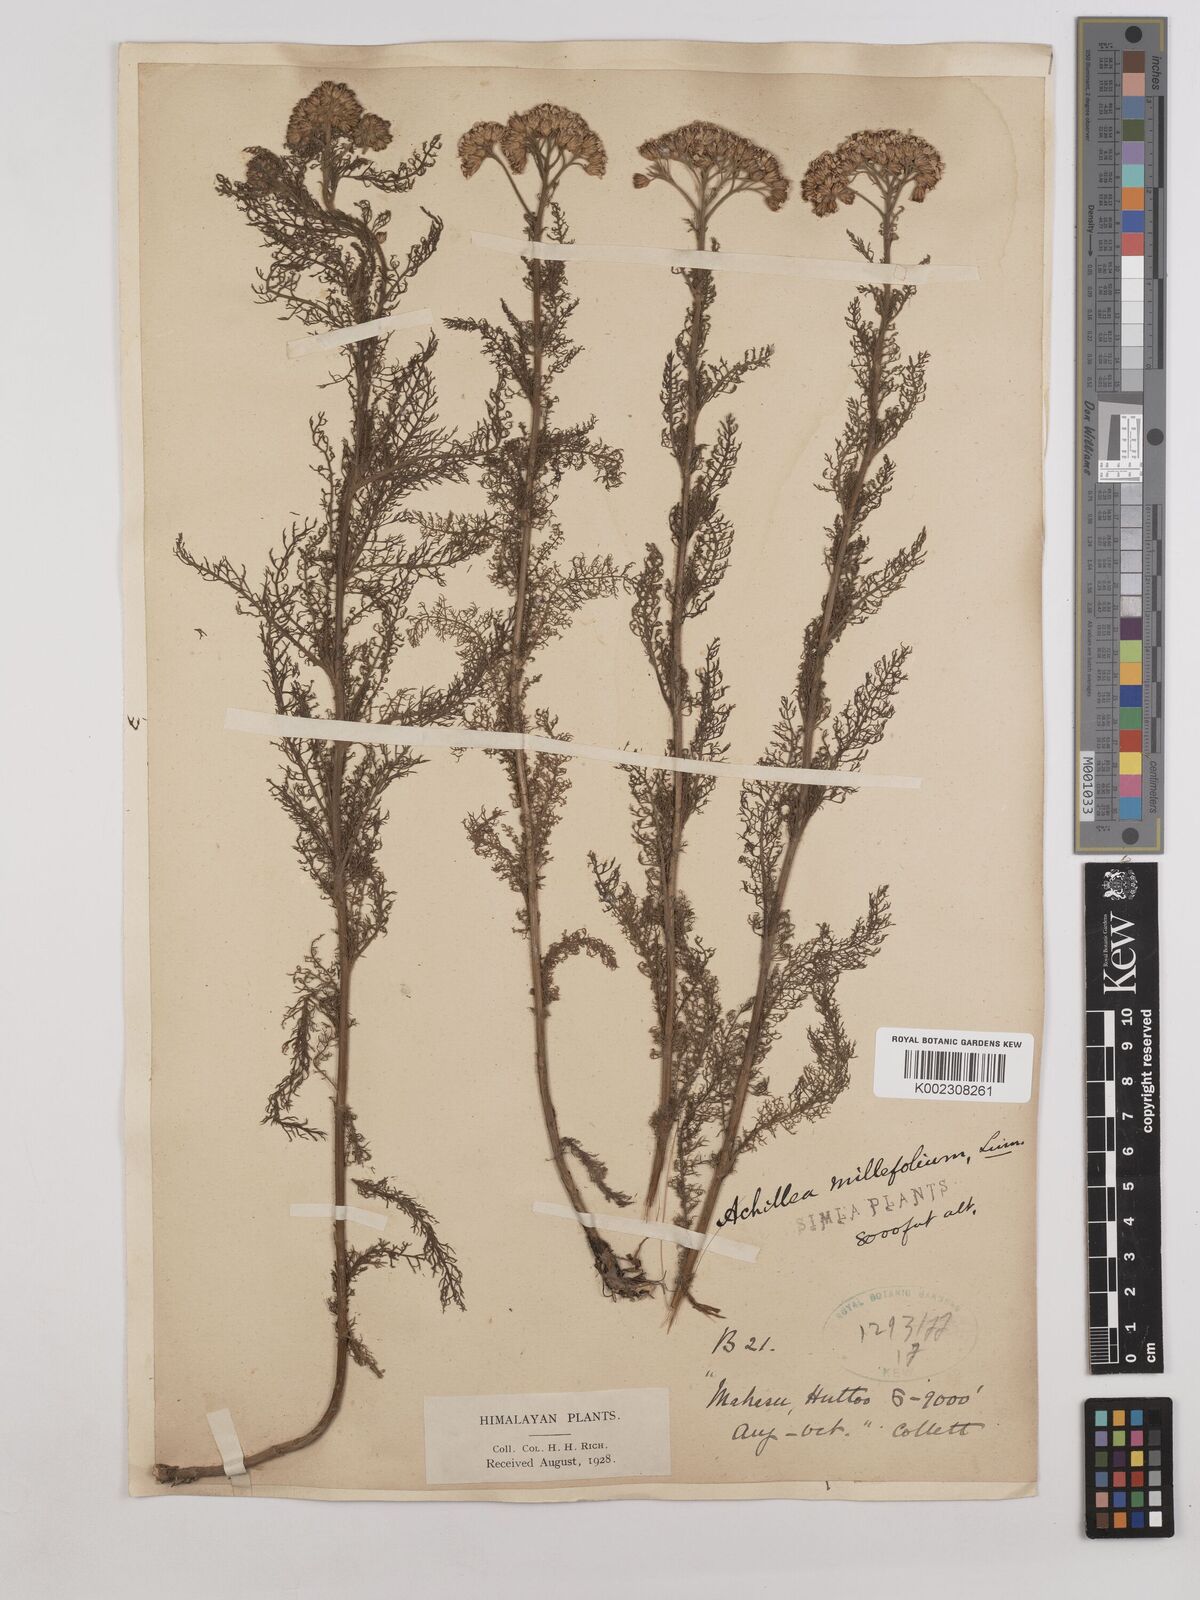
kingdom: Plantae
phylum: Tracheophyta
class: Magnoliopsida
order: Asterales
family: Asteraceae
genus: Achillea
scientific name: Achillea millefolium
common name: Yarrow
